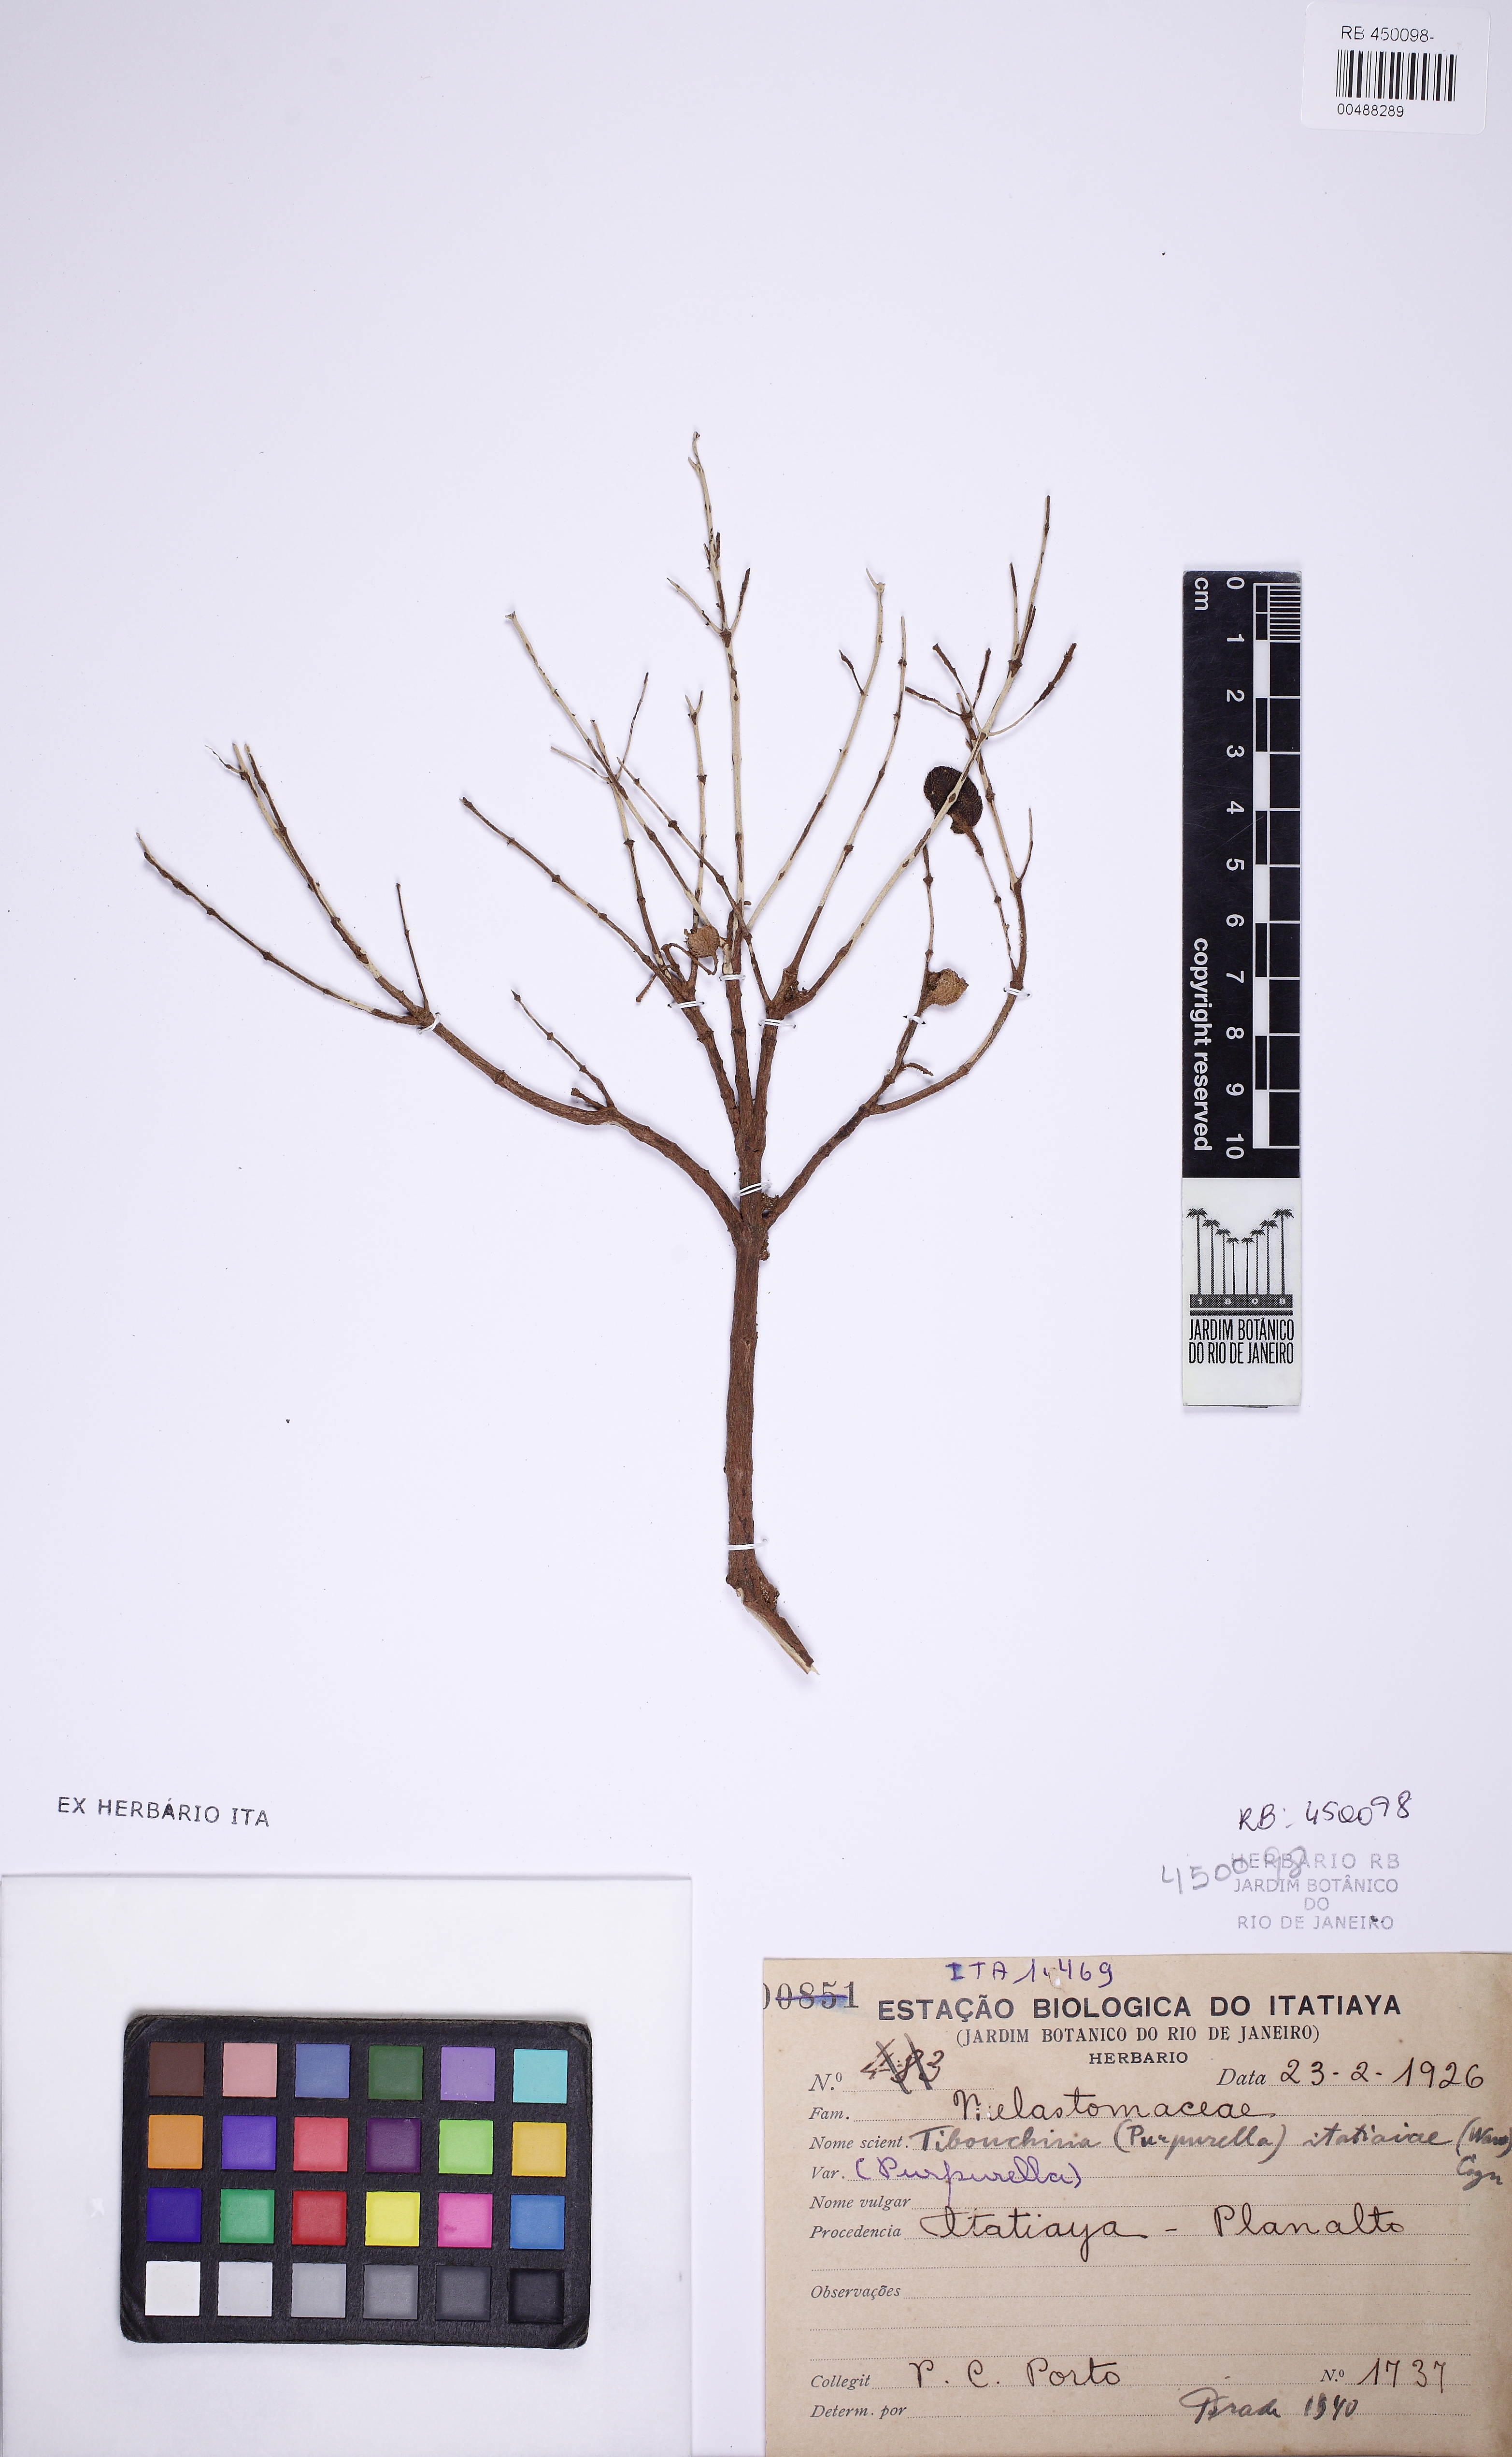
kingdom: Plantae
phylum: Tracheophyta
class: Magnoliopsida
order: Myrtales
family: Melastomataceae
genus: Pleroma
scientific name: Pleroma itatiaiae
